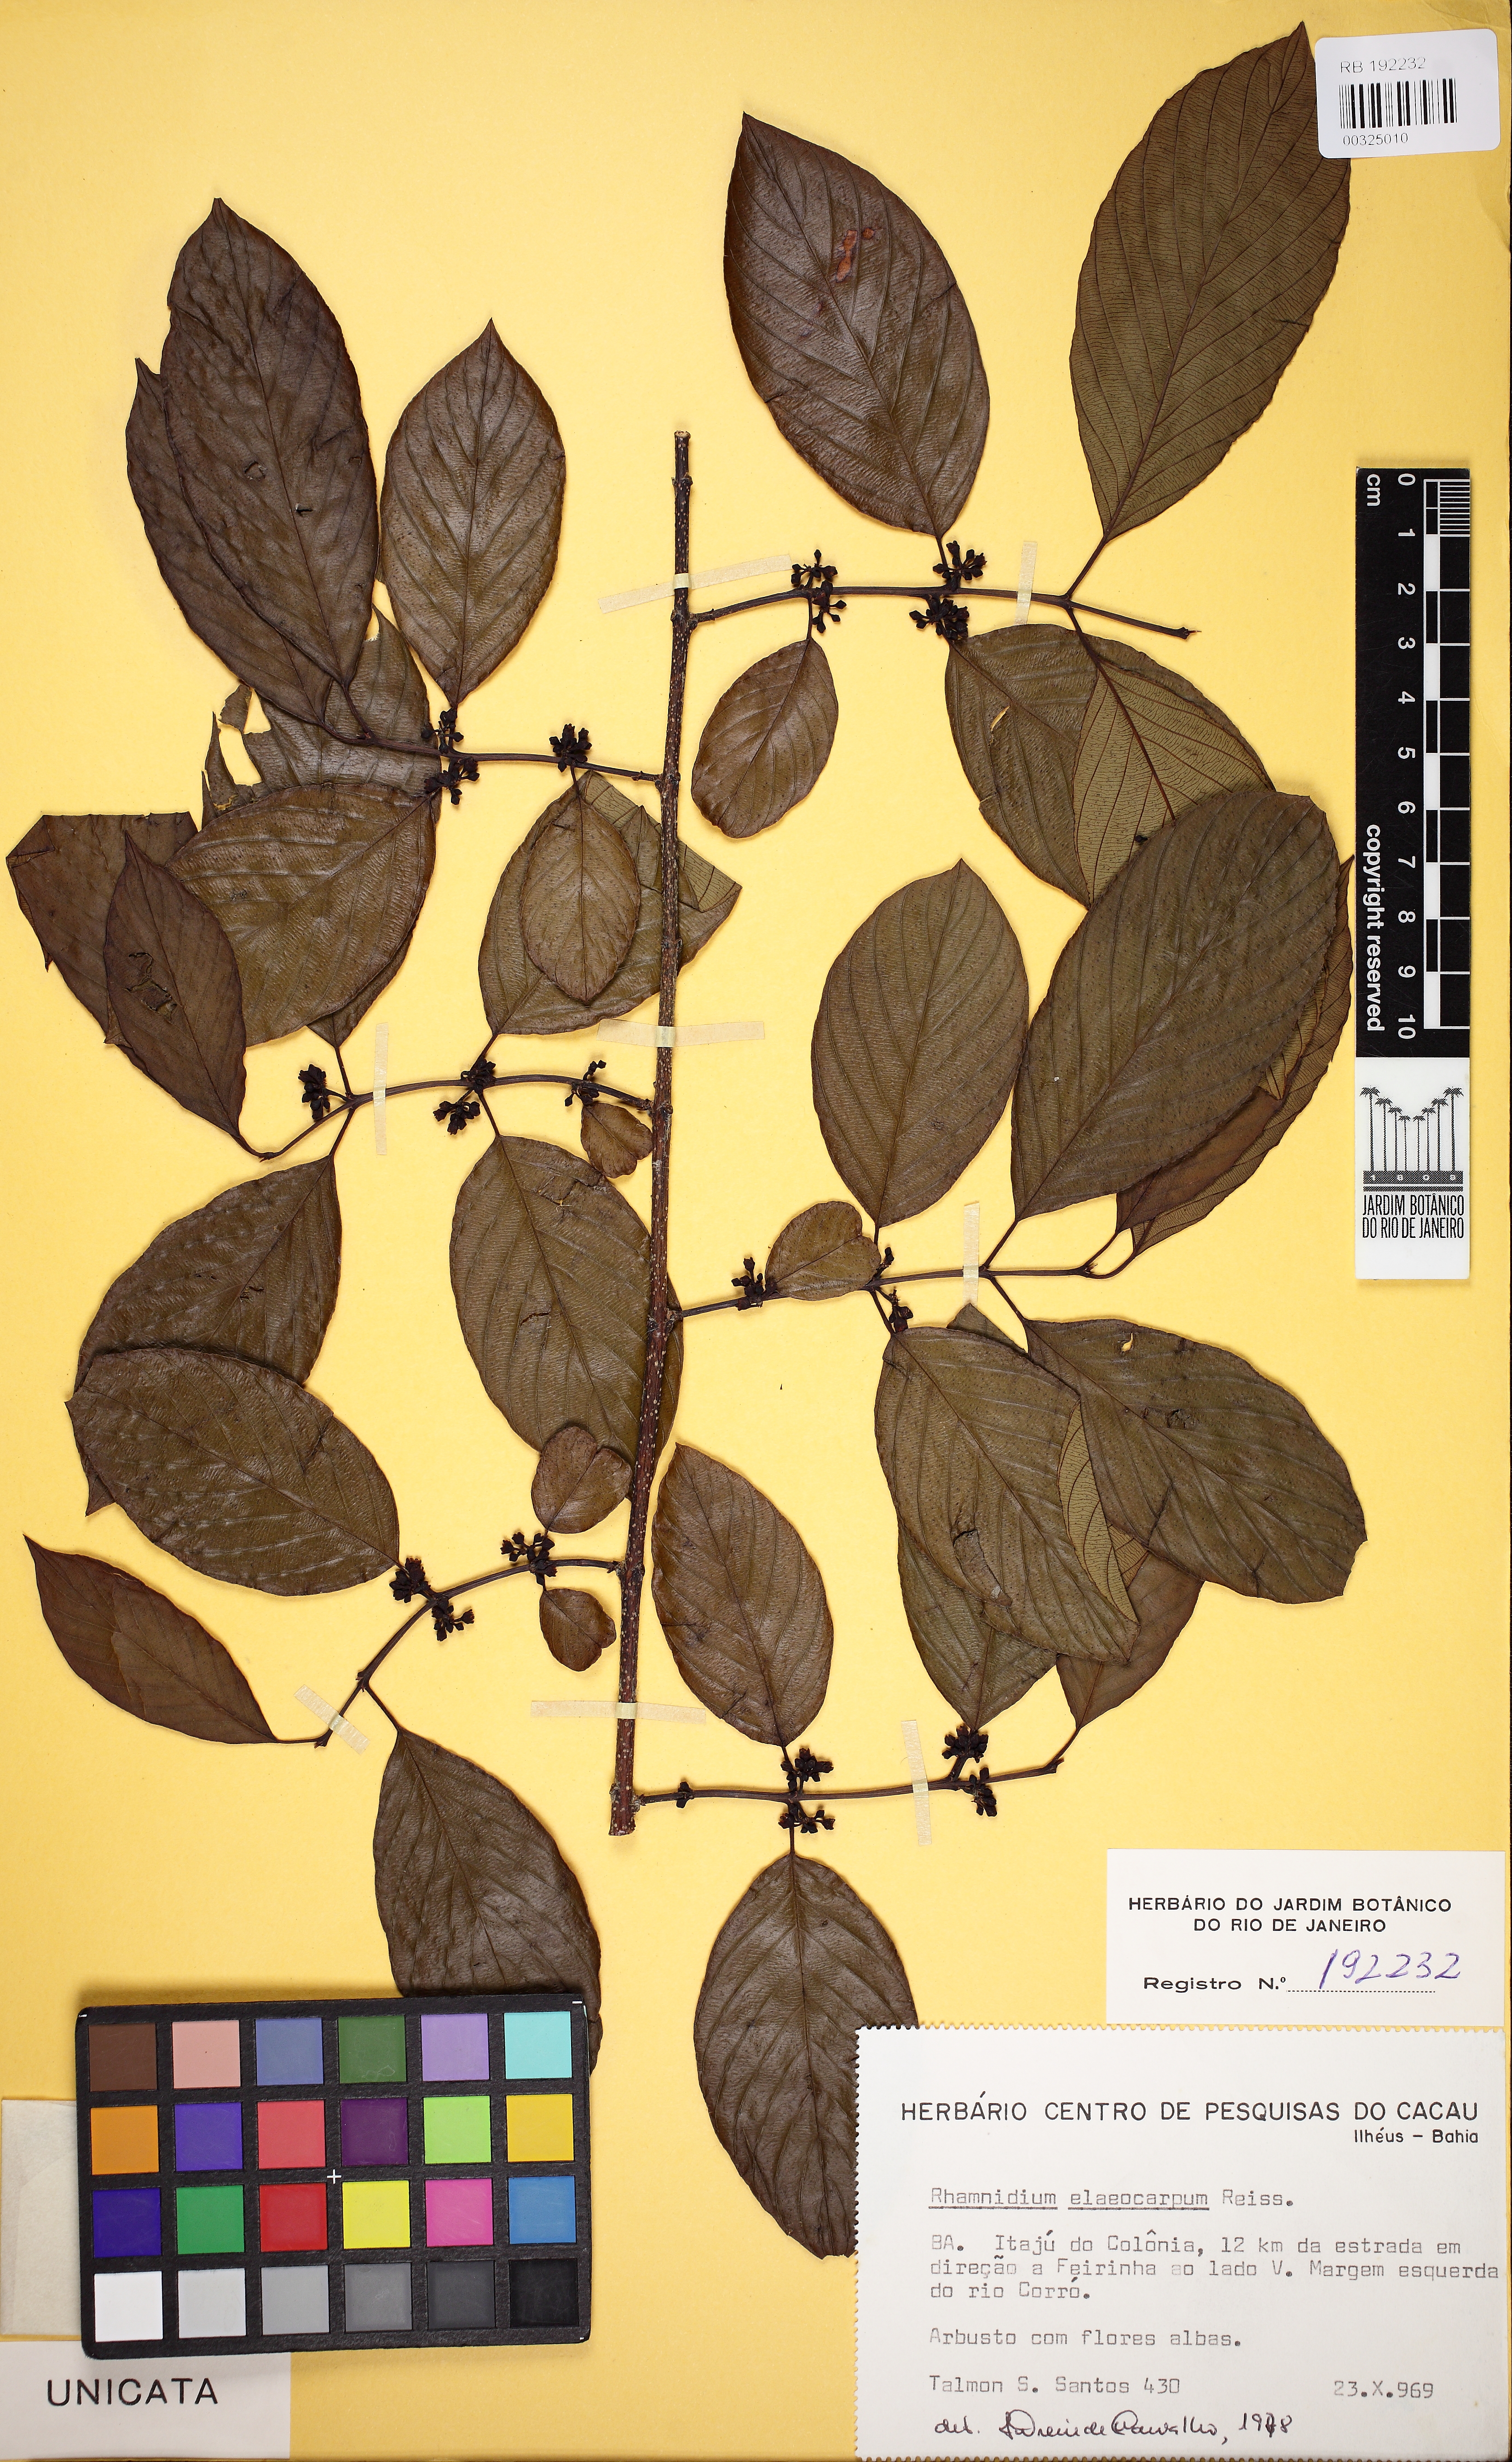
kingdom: Plantae
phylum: Tracheophyta
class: Magnoliopsida
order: Rosales
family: Rhamnaceae
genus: Rhamnidium
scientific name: Rhamnidium elaeocarpum
